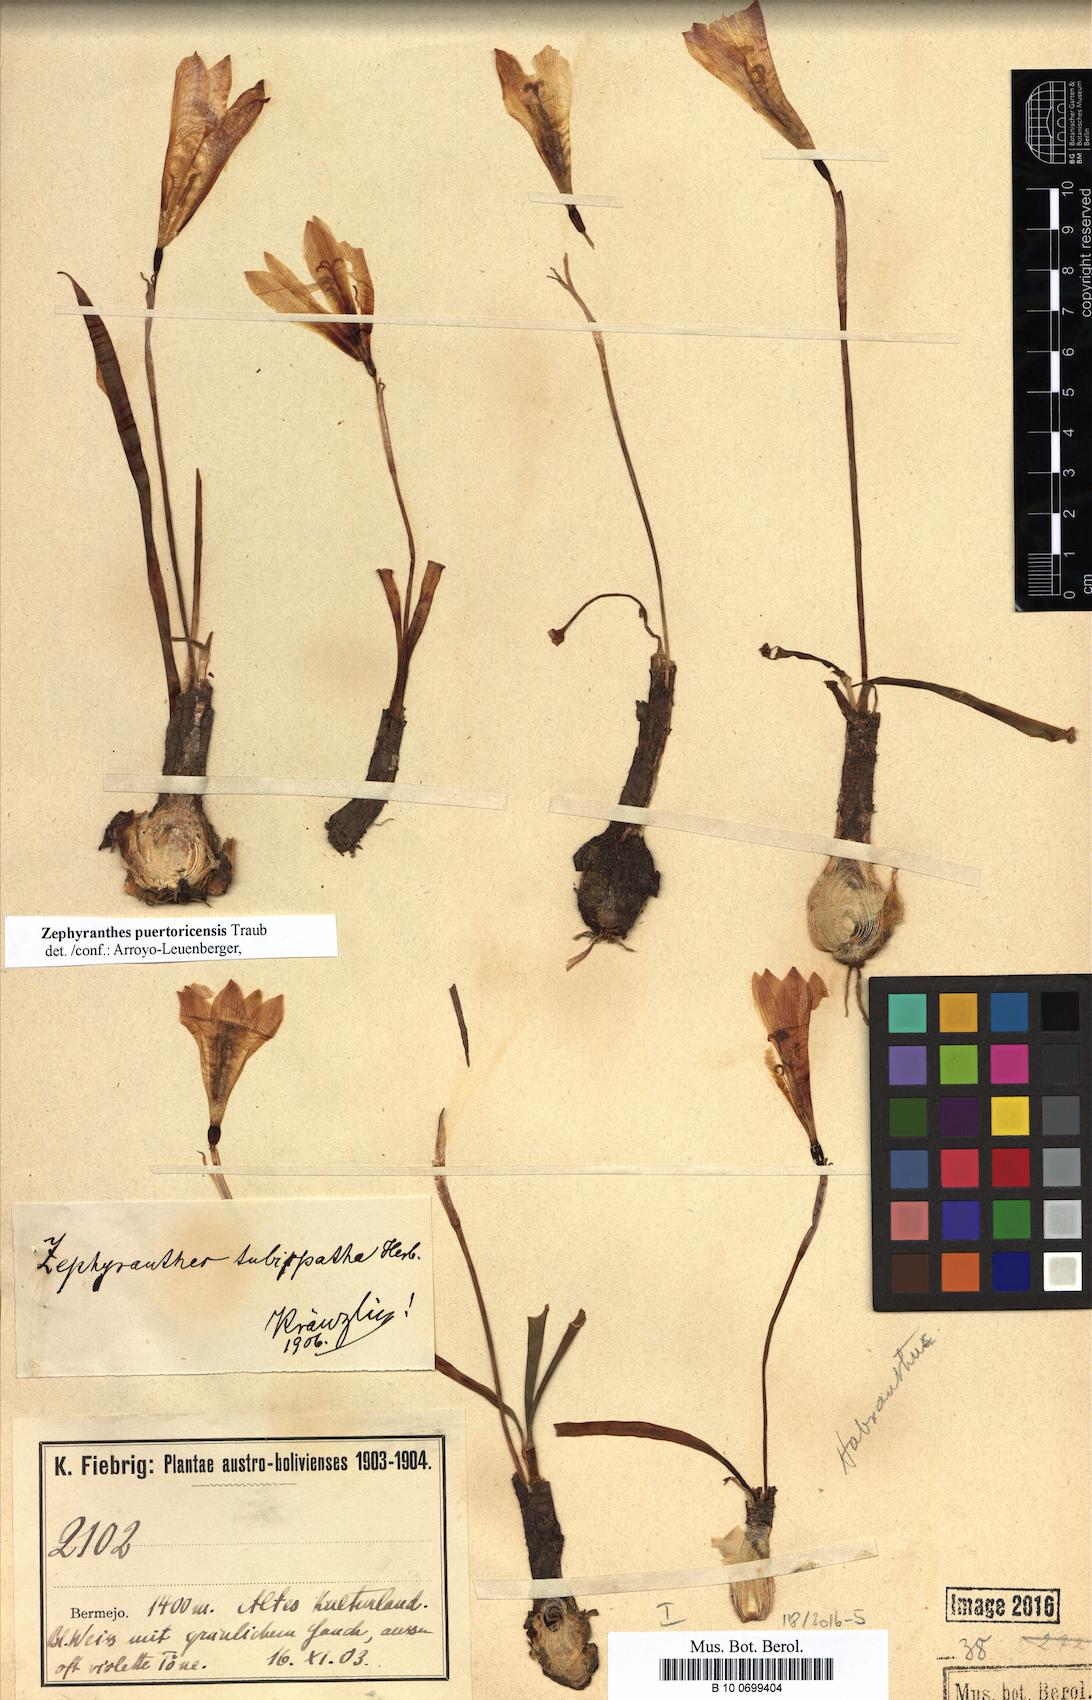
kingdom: Plantae
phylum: Tracheophyta
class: Liliopsida
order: Asparagales
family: Amaryllidaceae
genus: Zephyranthes
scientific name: Zephyranthes puertoricensis
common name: White snowdrop
